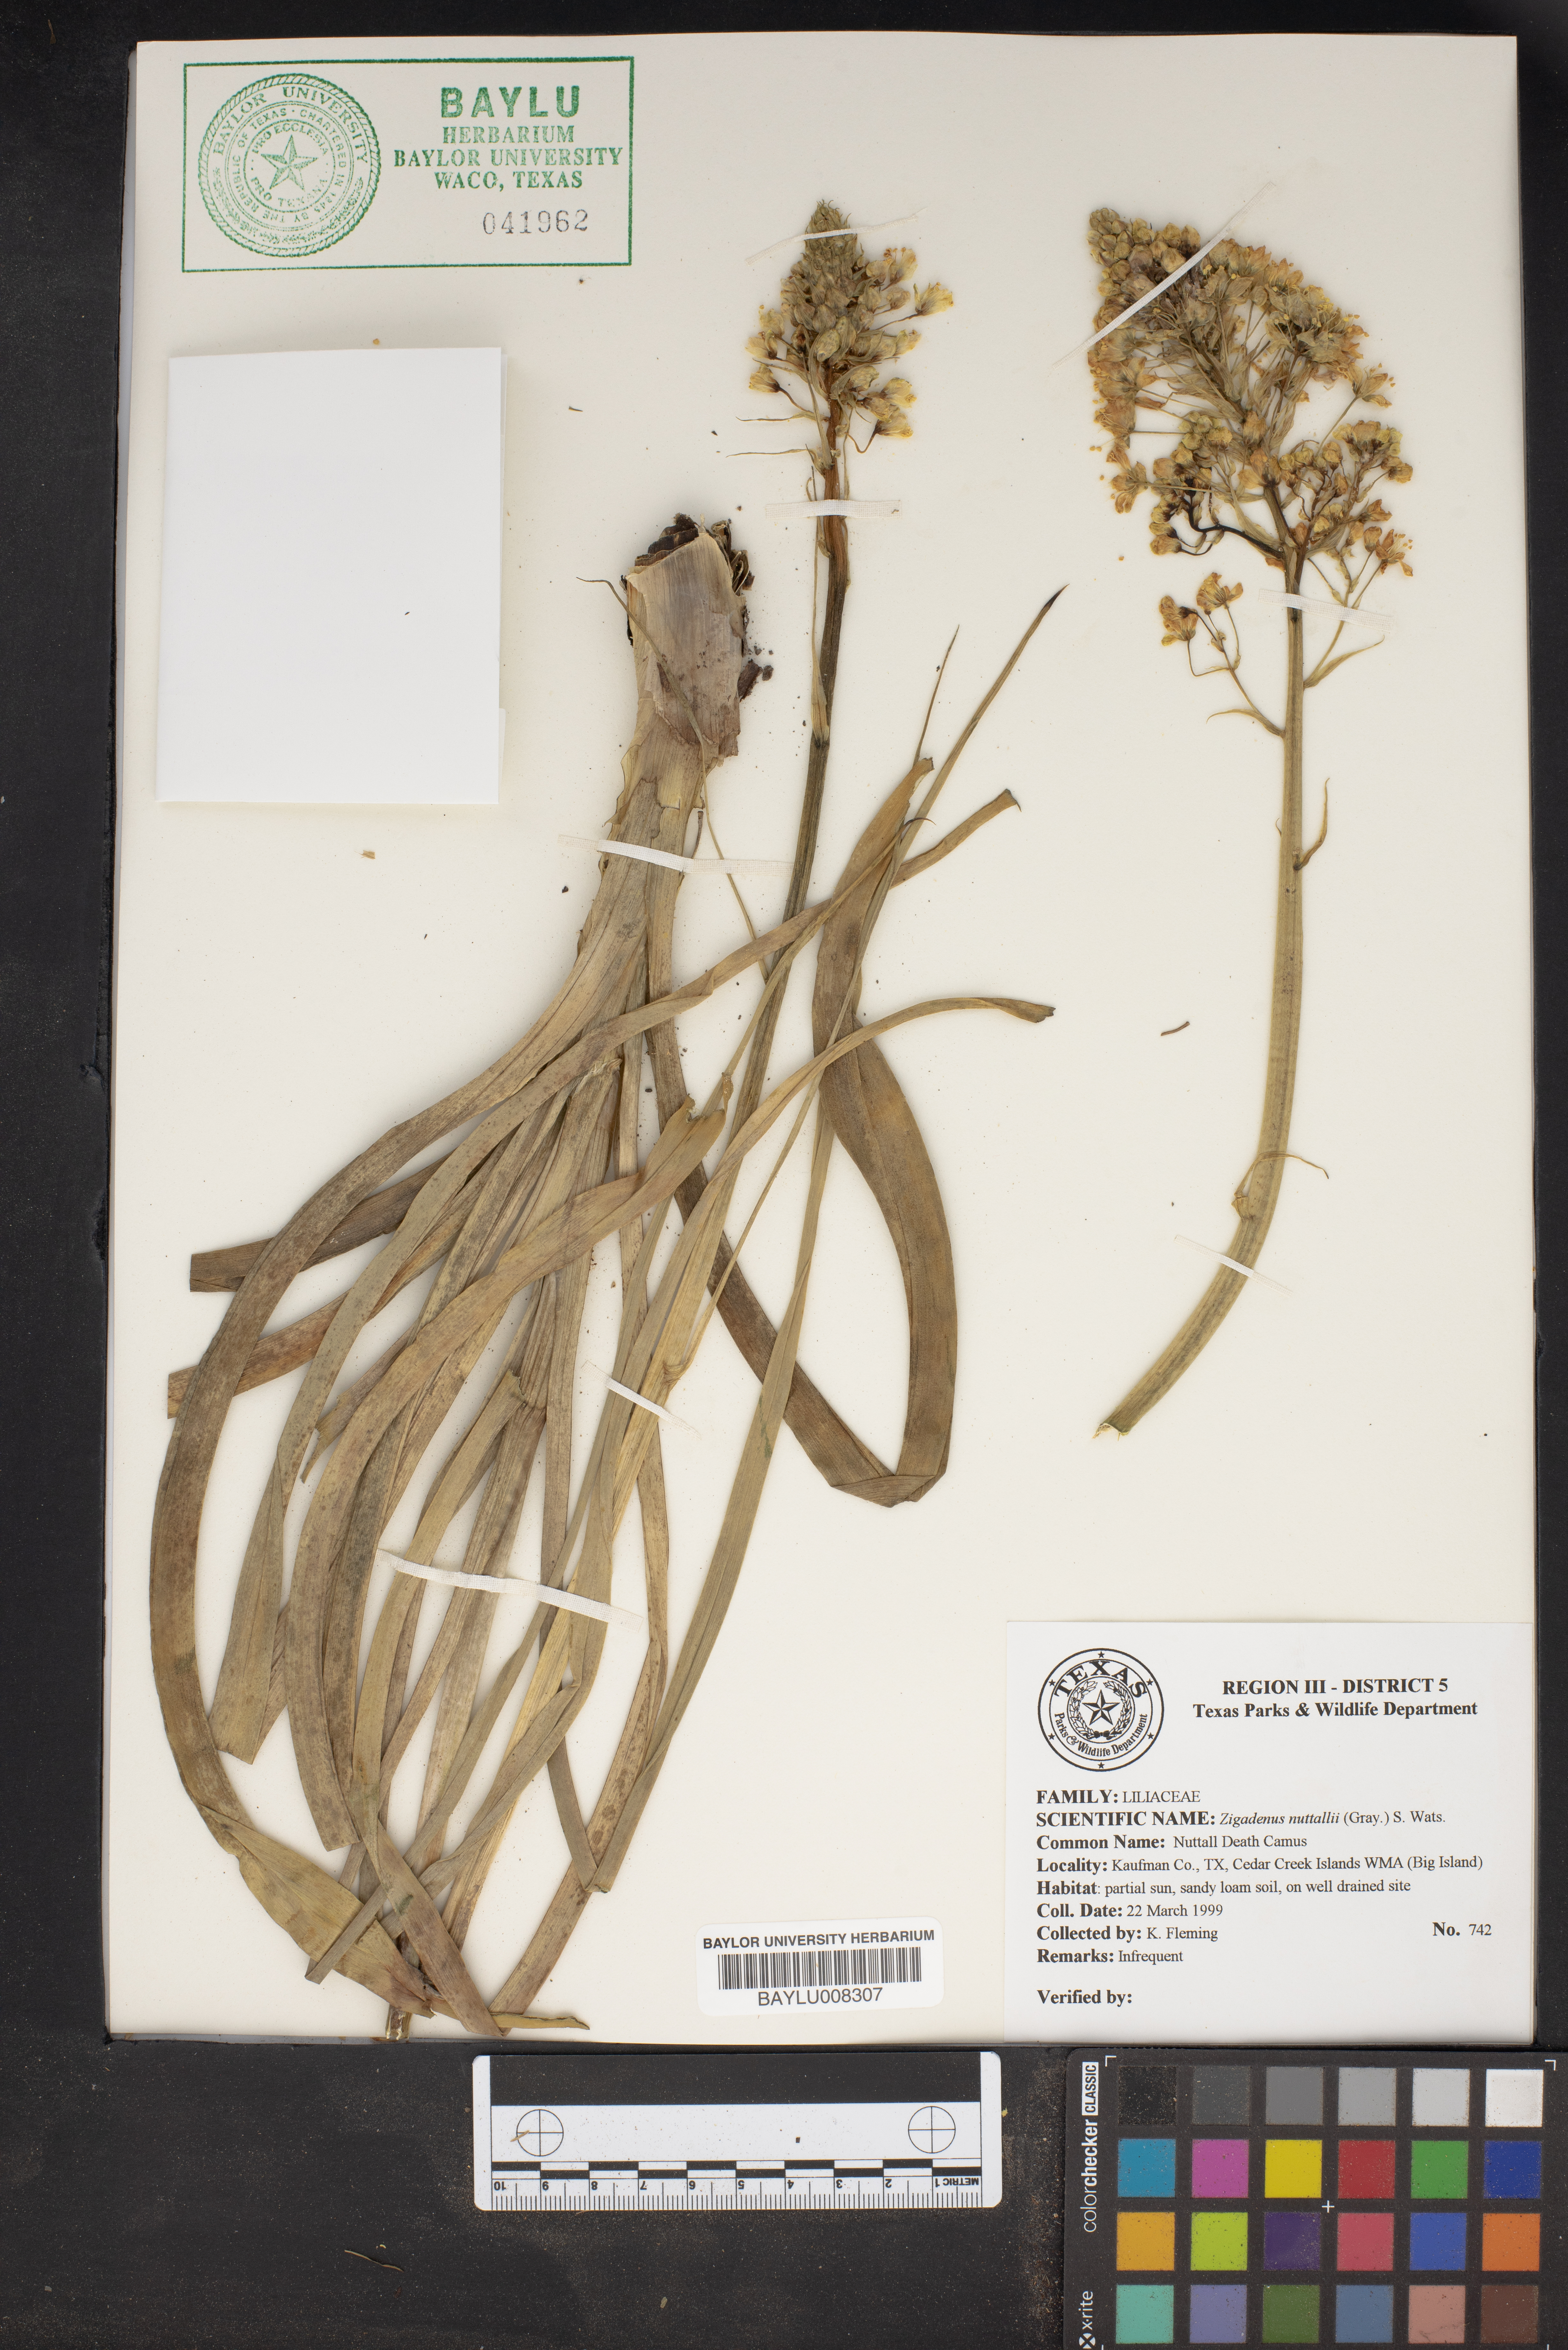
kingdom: Plantae
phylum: Tracheophyta
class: Liliopsida
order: Liliales
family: Melanthiaceae
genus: Toxicoscordion
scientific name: Toxicoscordion nuttallii
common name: Poison sego
